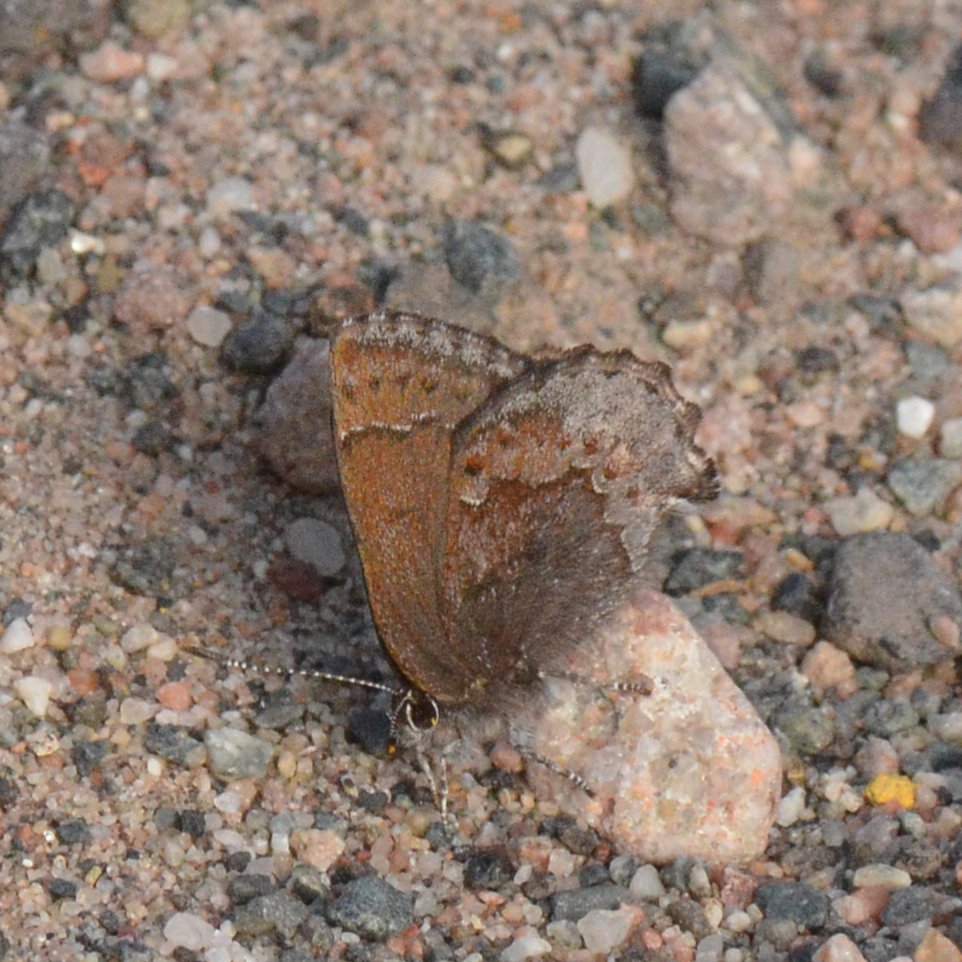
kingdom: Animalia
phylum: Arthropoda
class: Insecta
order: Lepidoptera
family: Lycaenidae
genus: Callophrys
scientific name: Callophrys polios
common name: Hoary Elfin
